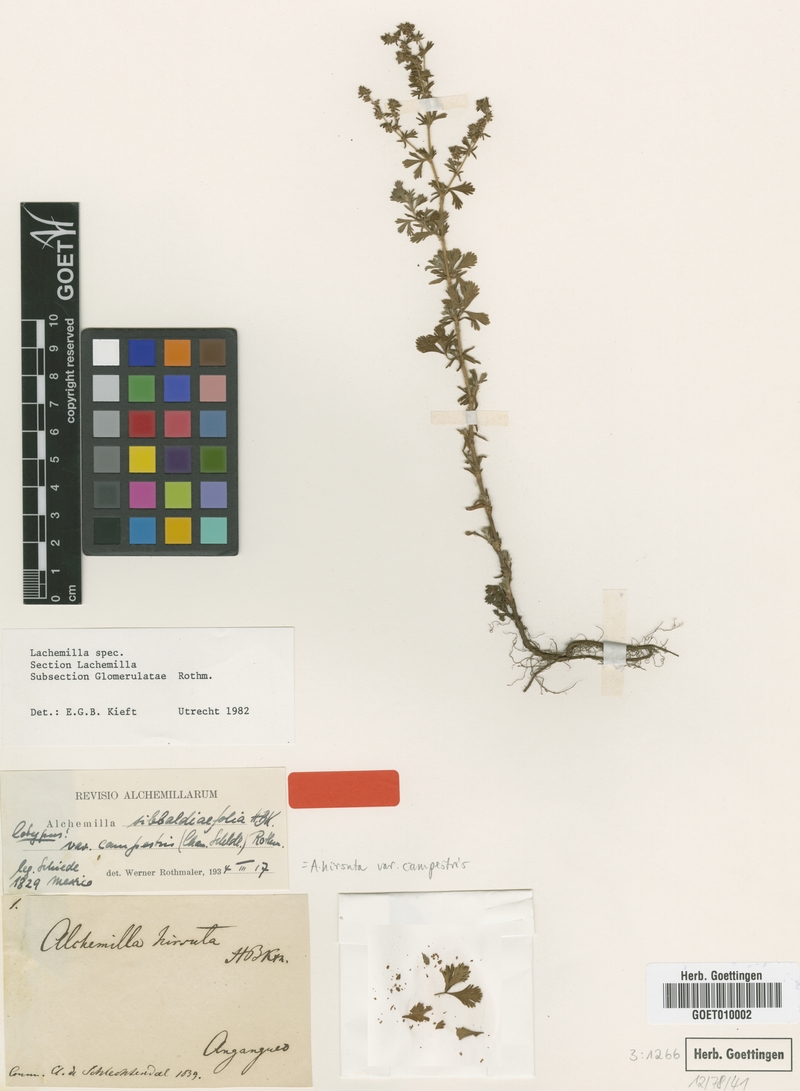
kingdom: Plantae
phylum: Tracheophyta
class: Magnoliopsida
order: Rosales
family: Rosaceae
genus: Lachemilla
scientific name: Lachemilla sibbaldiifolia
